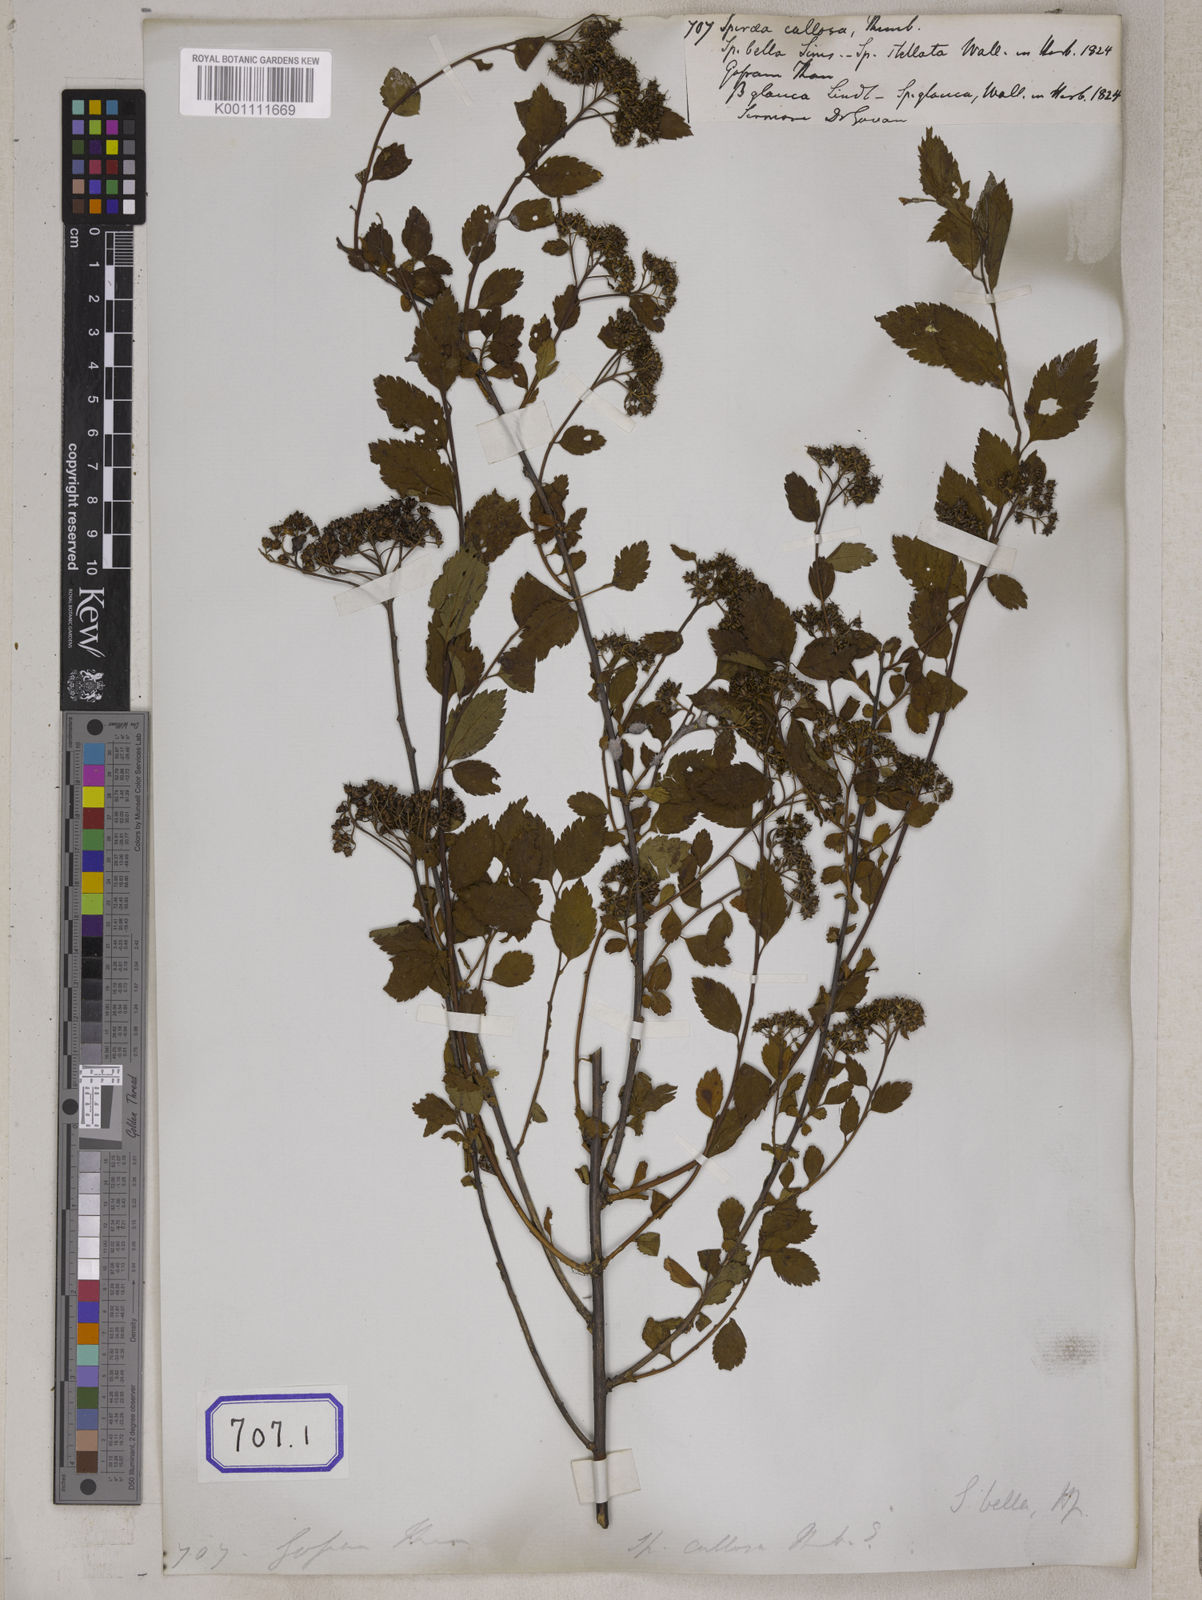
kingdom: Plantae
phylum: Tracheophyta
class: Magnoliopsida
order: Rosales
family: Rosaceae
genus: Spiraea
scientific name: Spiraea japonica
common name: Japanese spiraea
